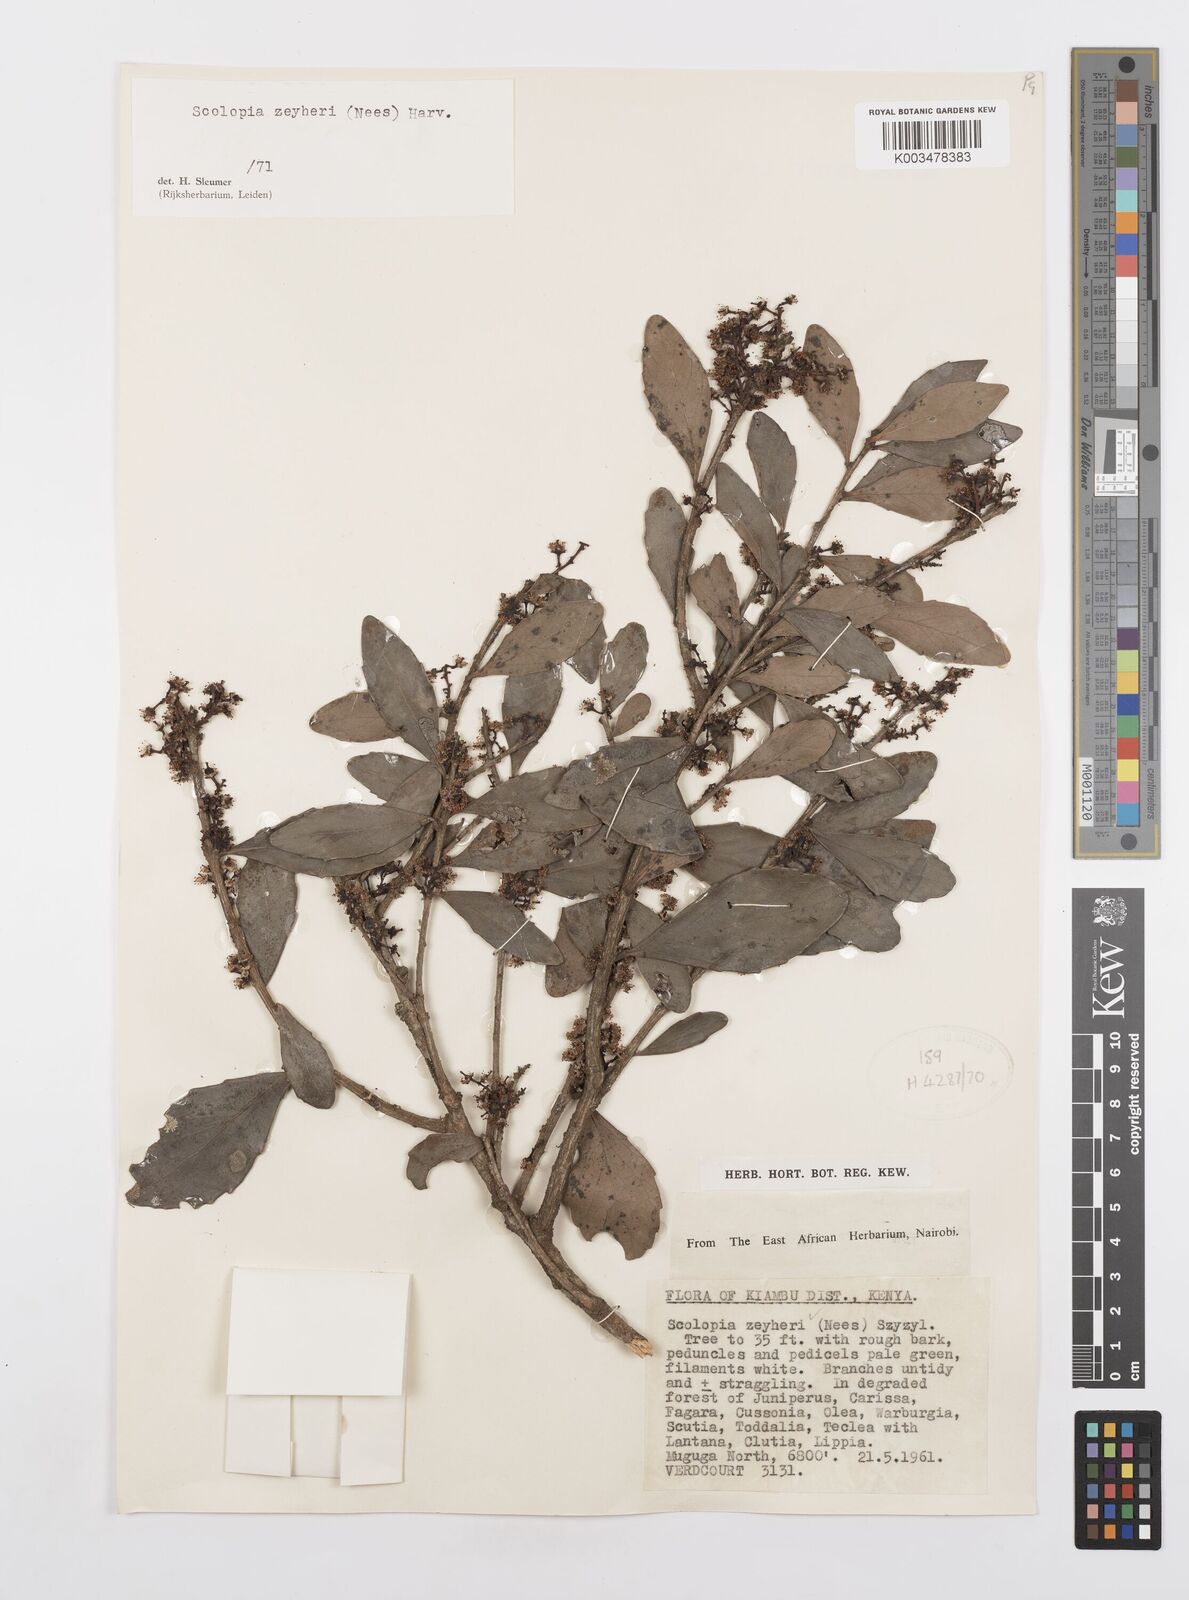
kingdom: Plantae
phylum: Tracheophyta
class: Magnoliopsida
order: Malpighiales
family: Salicaceae
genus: Scolopia
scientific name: Scolopia zeyheri
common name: Thorn pear
